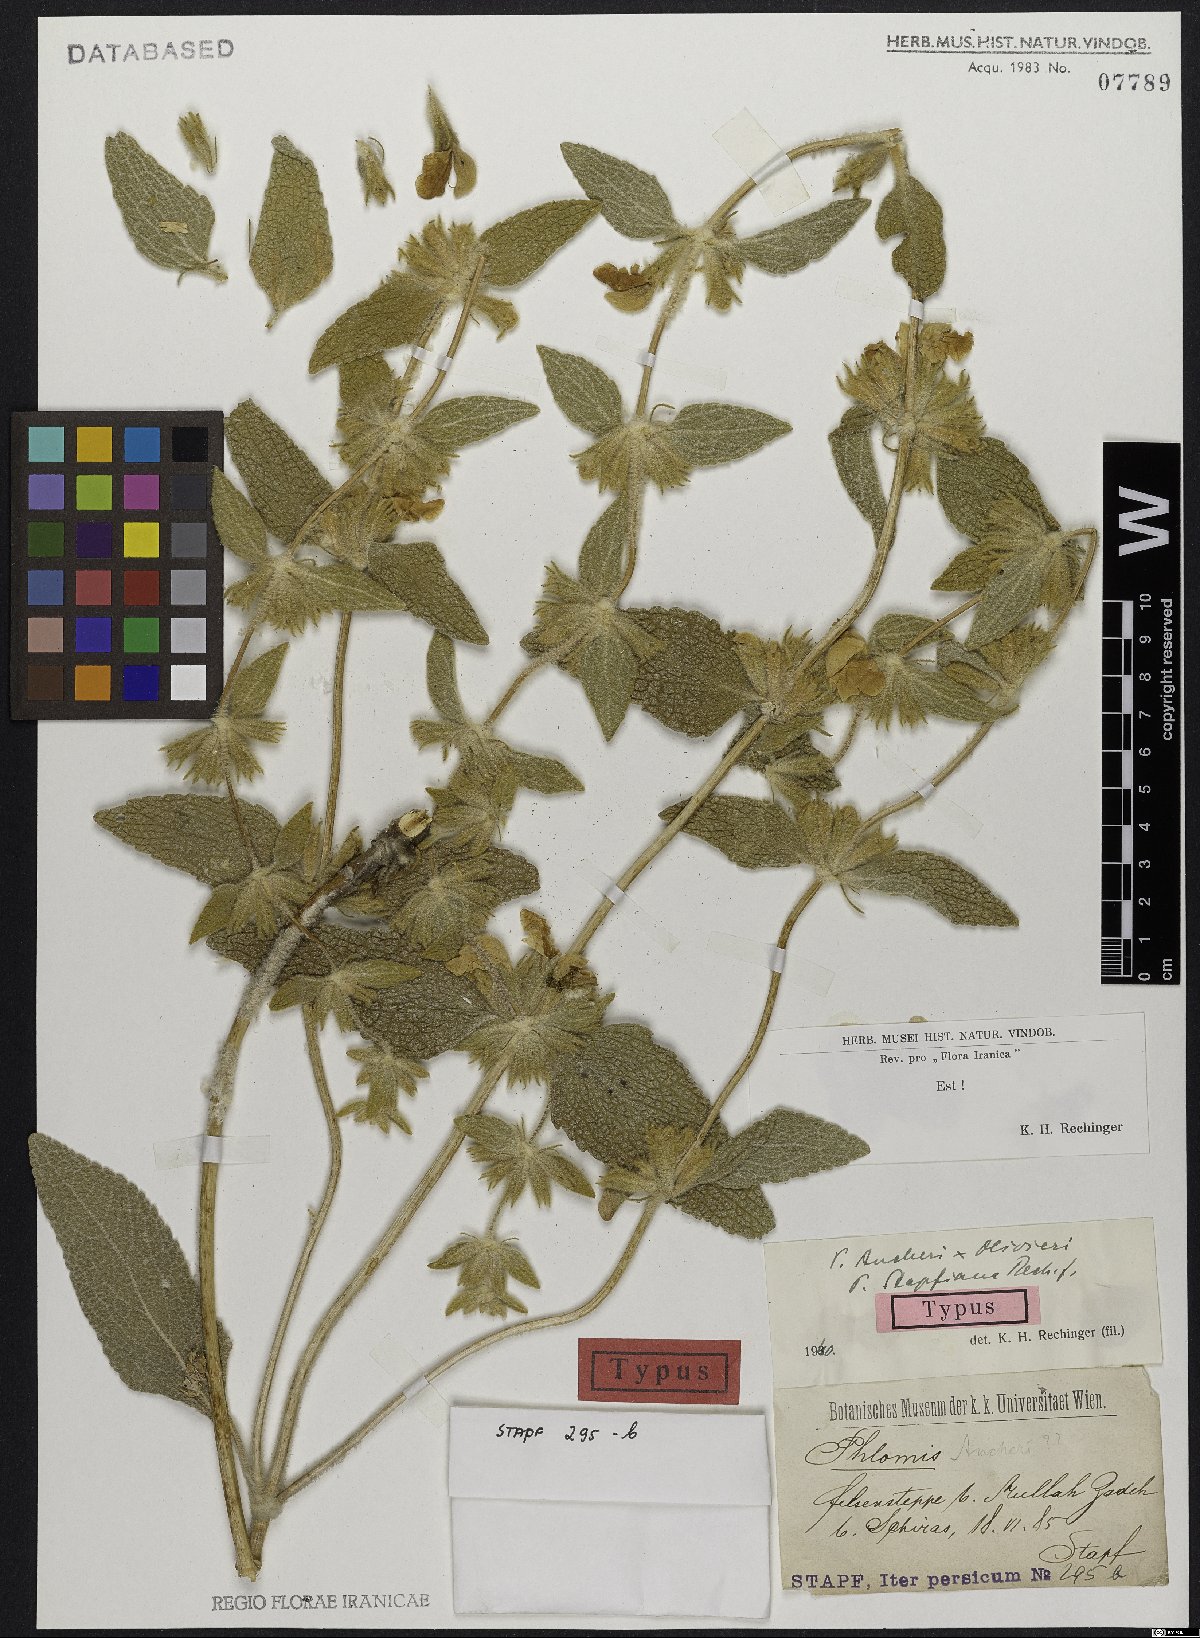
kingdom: Plantae
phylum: Tracheophyta
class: Magnoliopsida
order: Lamiales
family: Lamiaceae
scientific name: Lamiaceae
